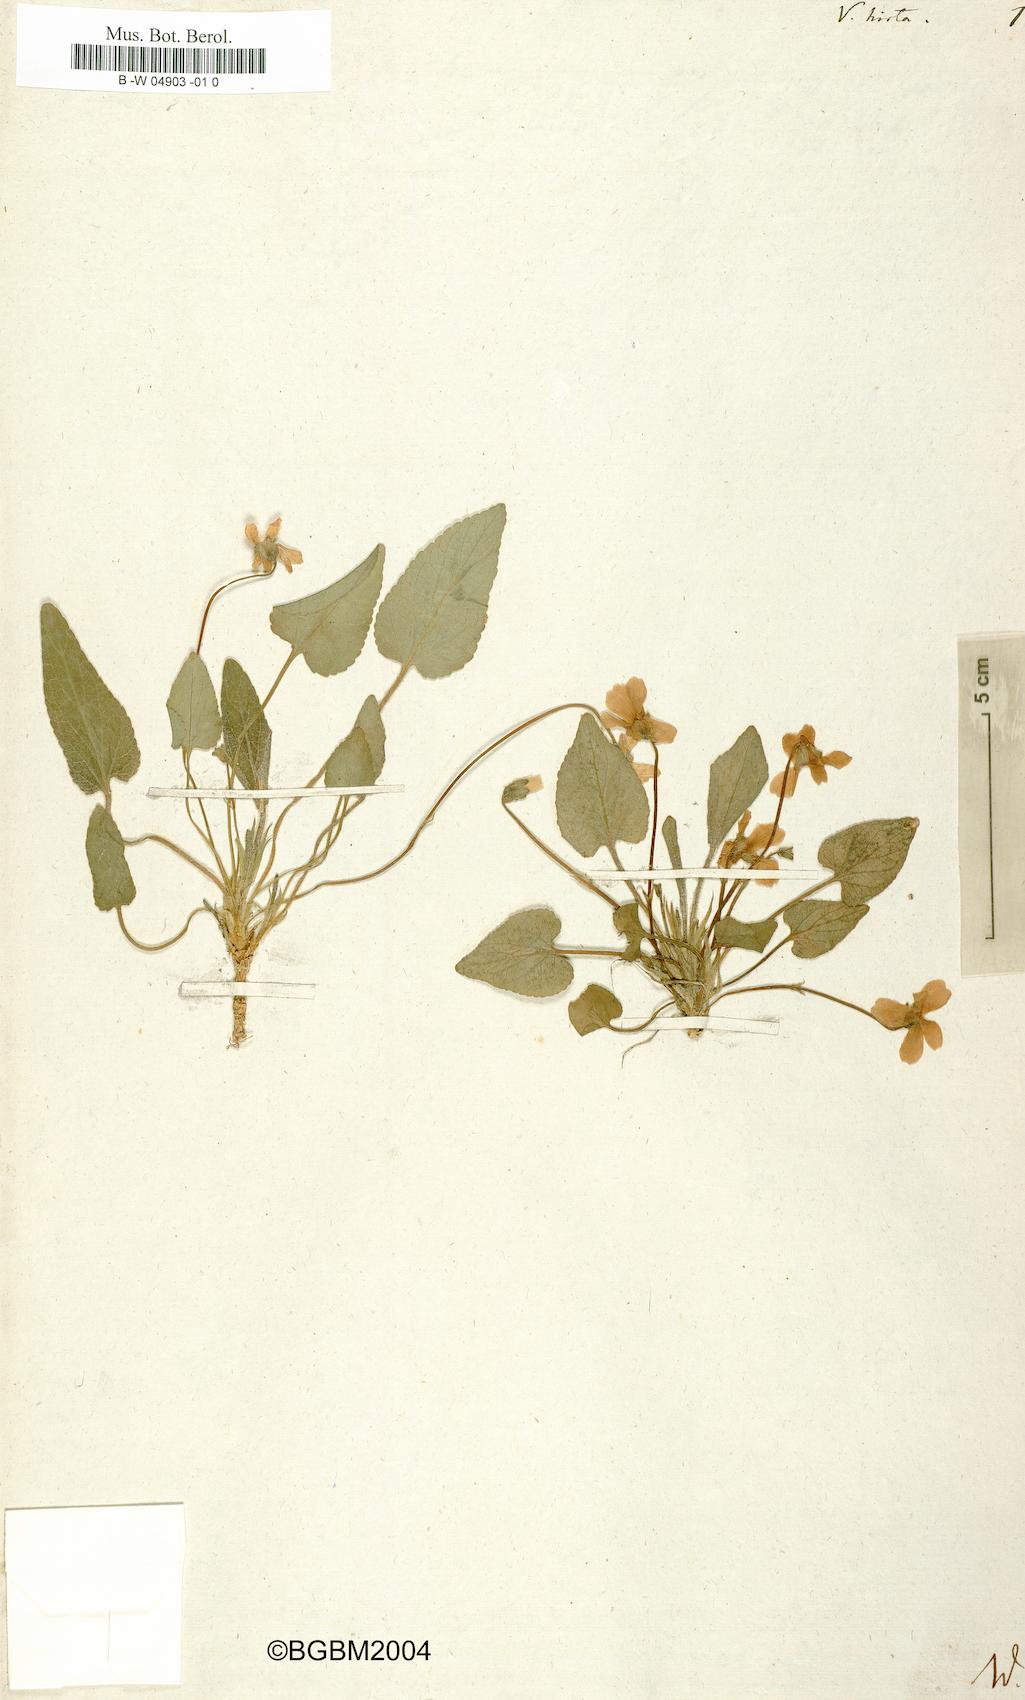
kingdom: Plantae
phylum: Tracheophyta
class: Magnoliopsida
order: Malpighiales
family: Violaceae
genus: Viola
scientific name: Viola hirta
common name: Hairy violet
